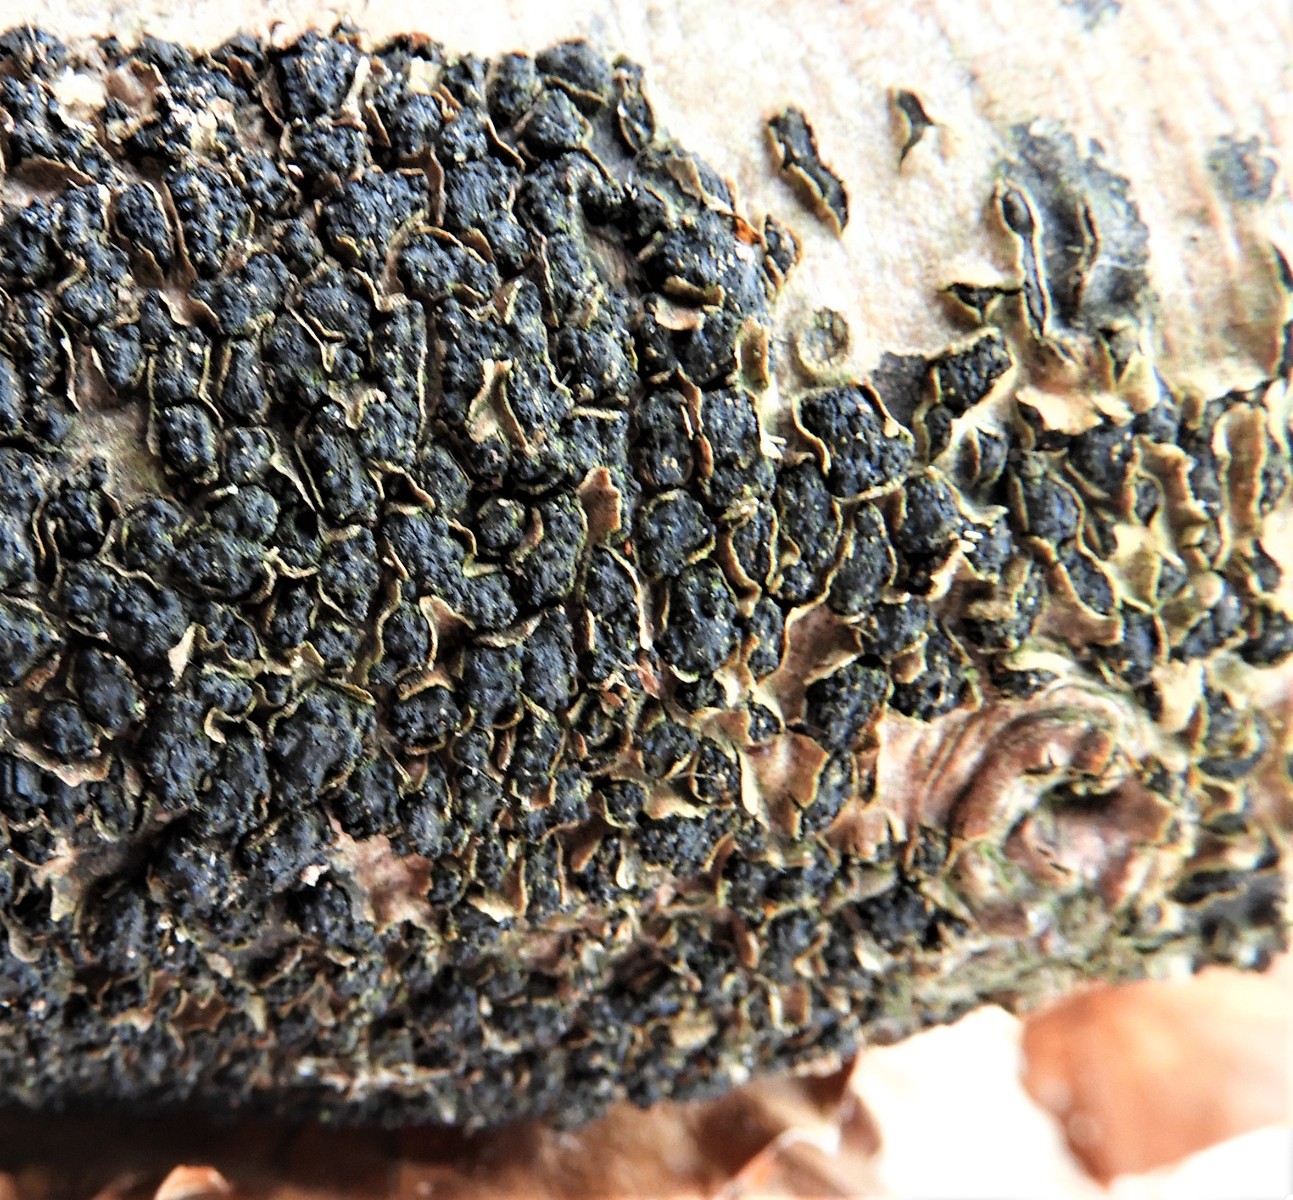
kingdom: Fungi
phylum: Ascomycota
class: Sordariomycetes
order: Xylariales
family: Melogrammataceae
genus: Melogramma
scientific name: Melogramma spiniferum
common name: bøgefod-kulhals
